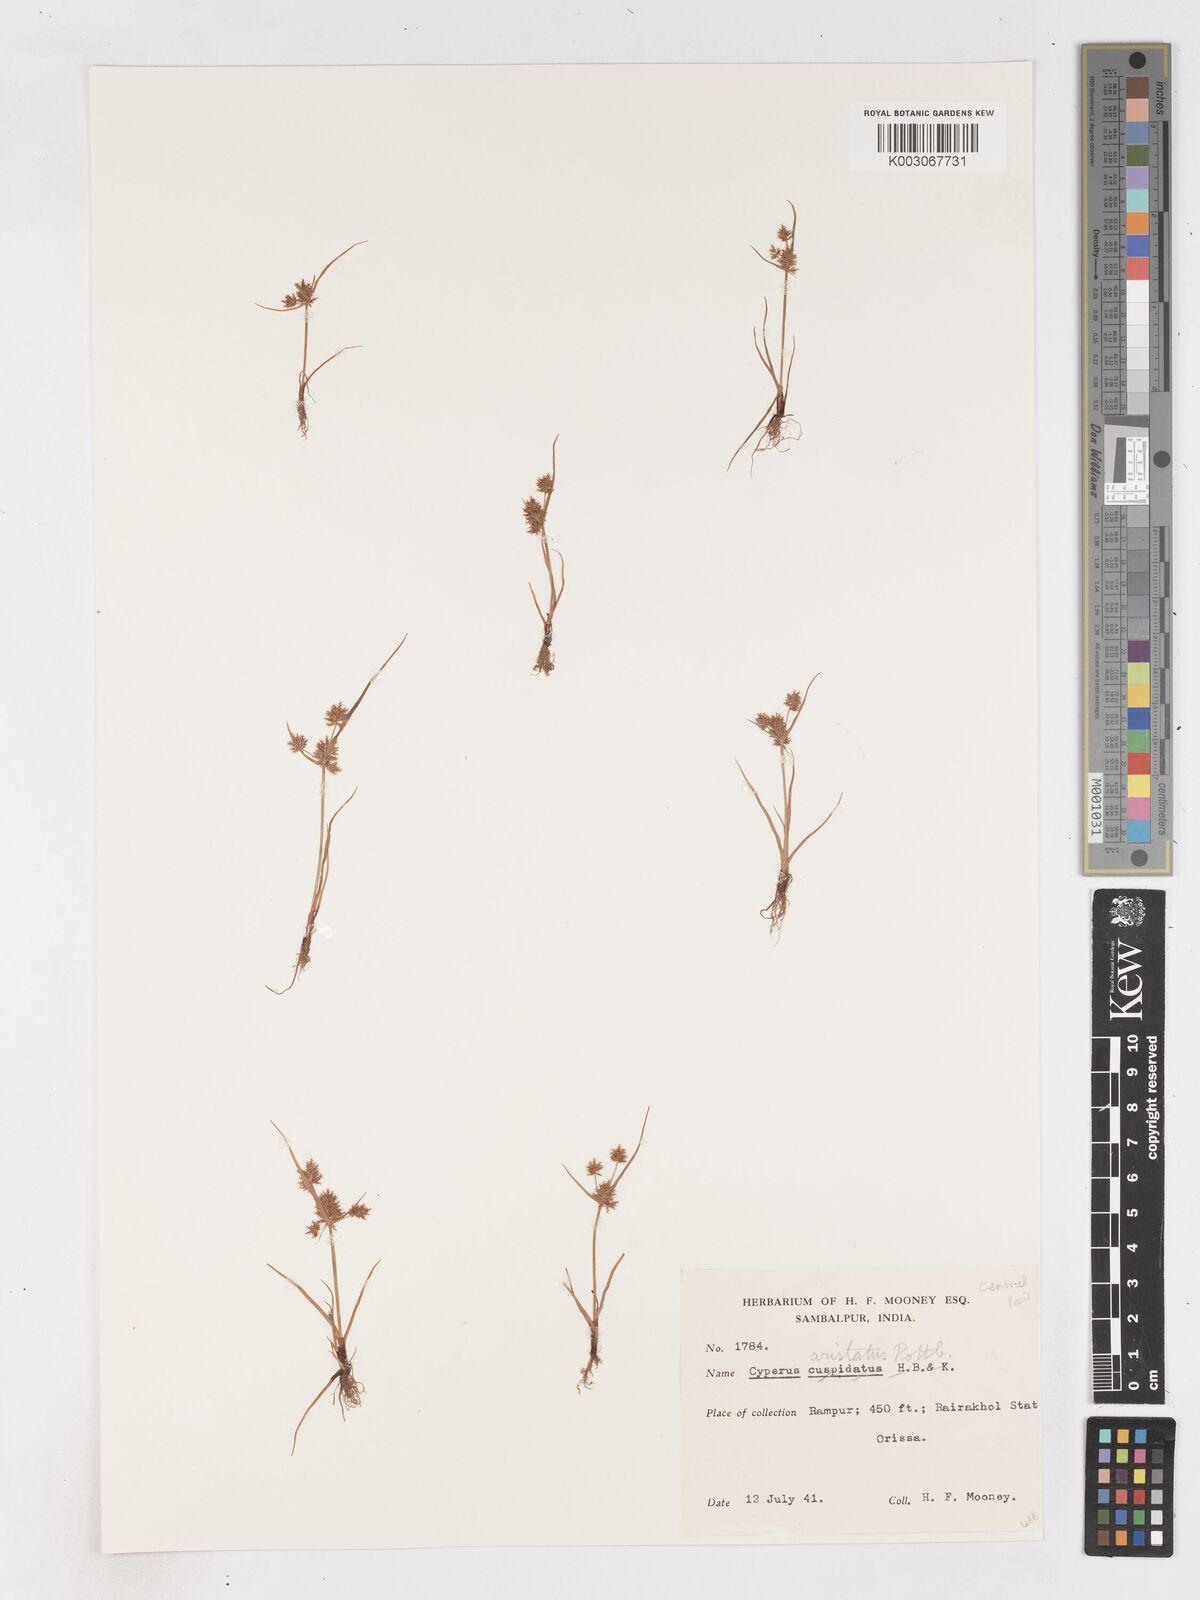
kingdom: Plantae
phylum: Tracheophyta
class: Liliopsida
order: Poales
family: Cyperaceae
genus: Cyperus
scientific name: Cyperus squarrosus
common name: Awned cyperus
